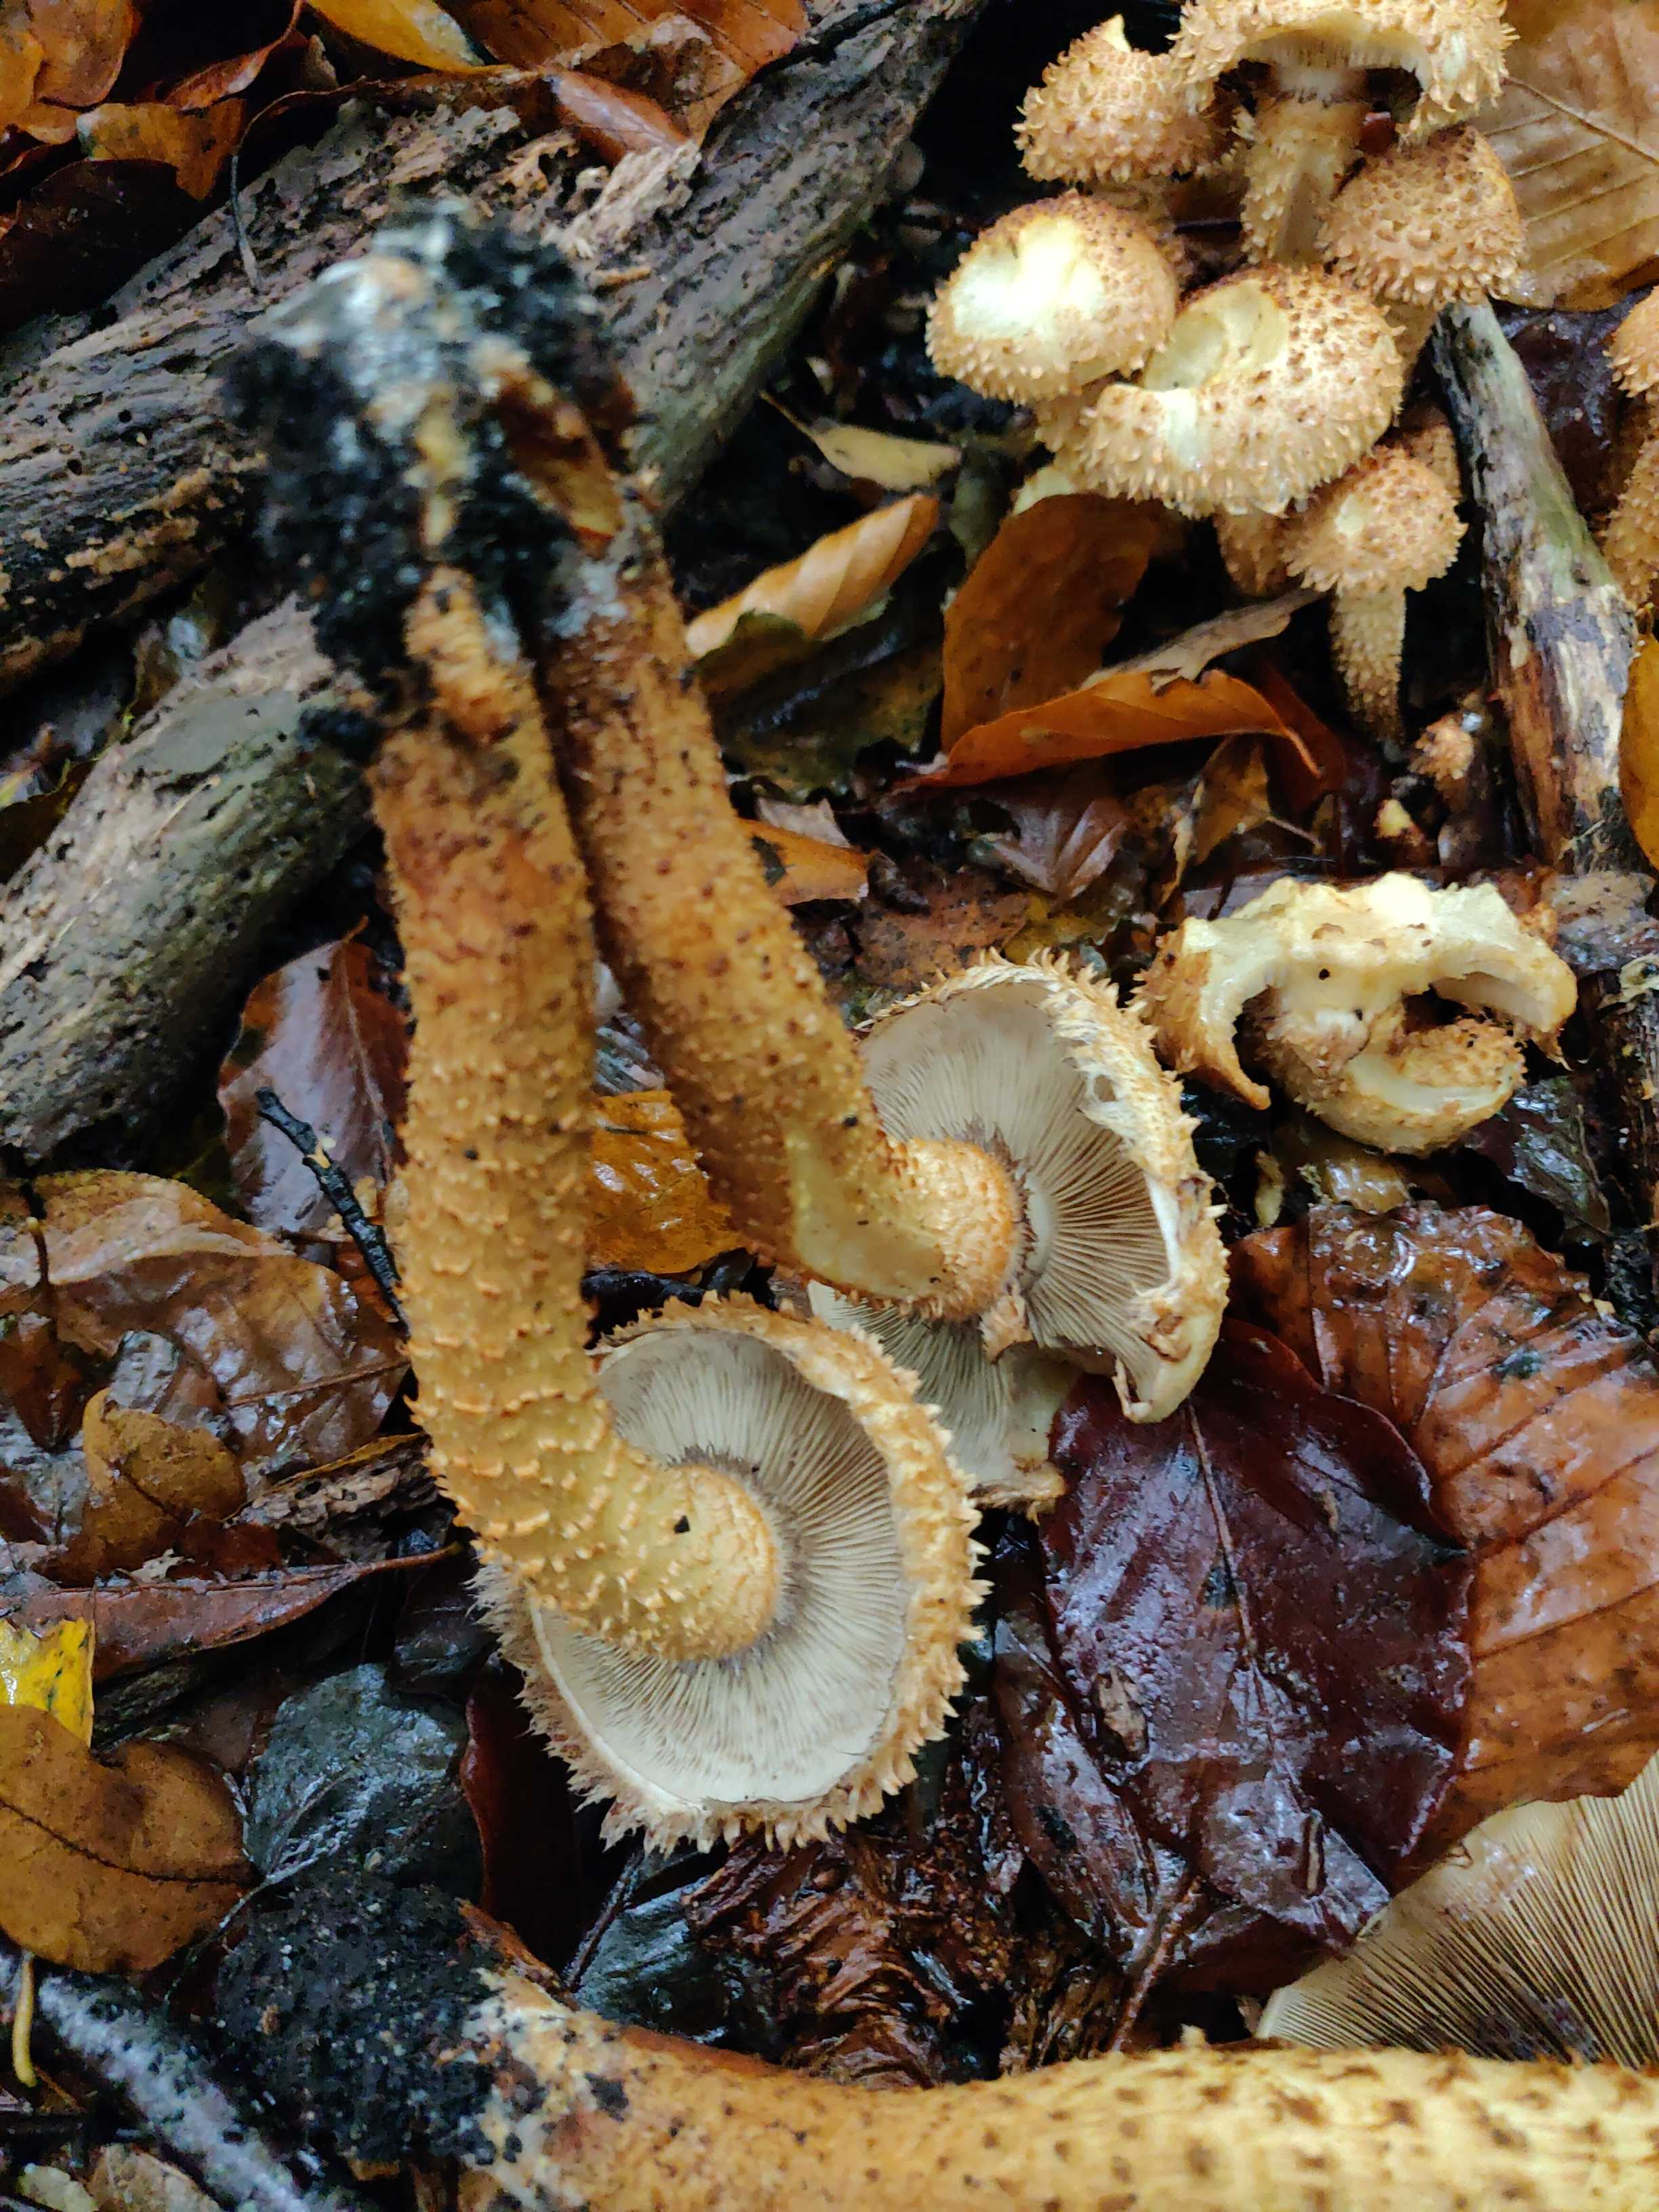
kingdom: Fungi
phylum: Basidiomycota
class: Agaricomycetes
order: Agaricales
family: Strophariaceae
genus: Pholiota
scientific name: Pholiota squarrosa
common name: krumskællet skælhat
